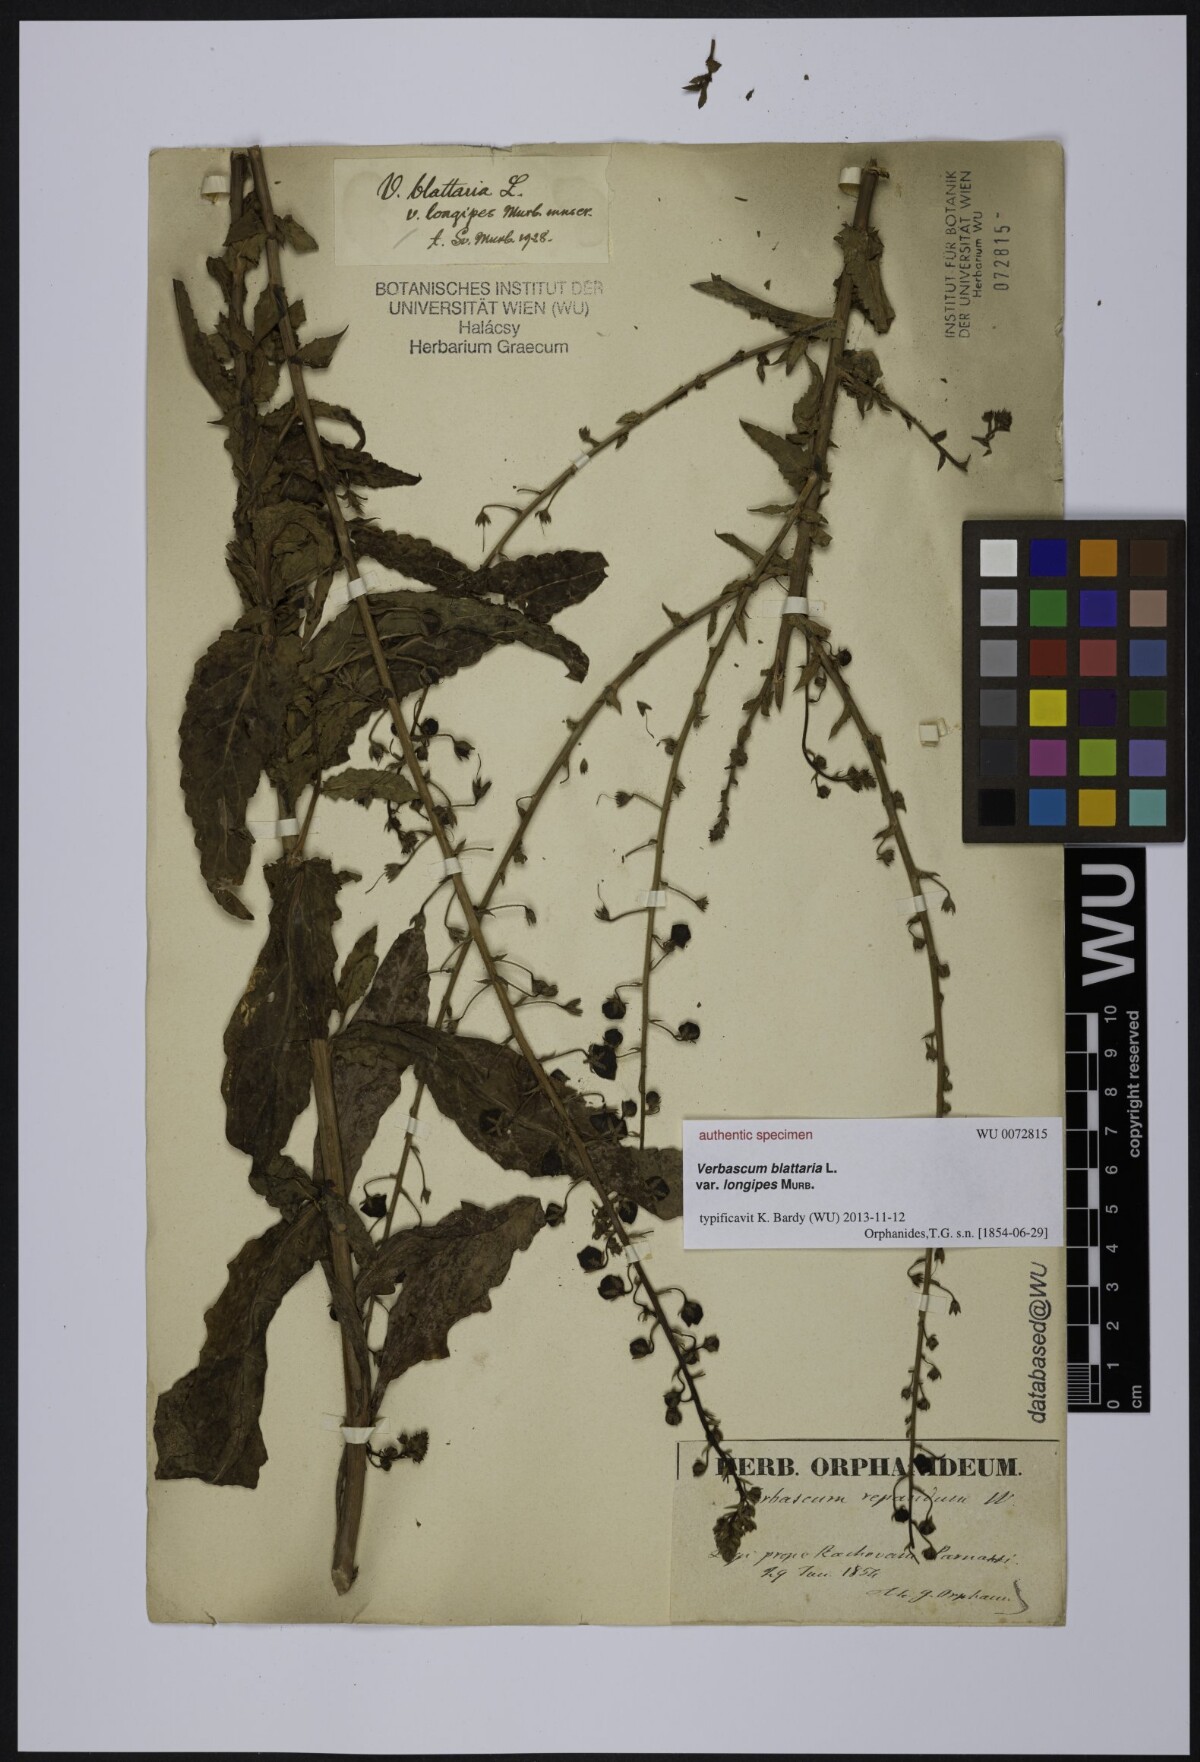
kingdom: Plantae
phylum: Tracheophyta
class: Magnoliopsida
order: Lamiales
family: Scrophulariaceae
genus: Verbascum
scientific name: Verbascum blattaria
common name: Moth mullein
